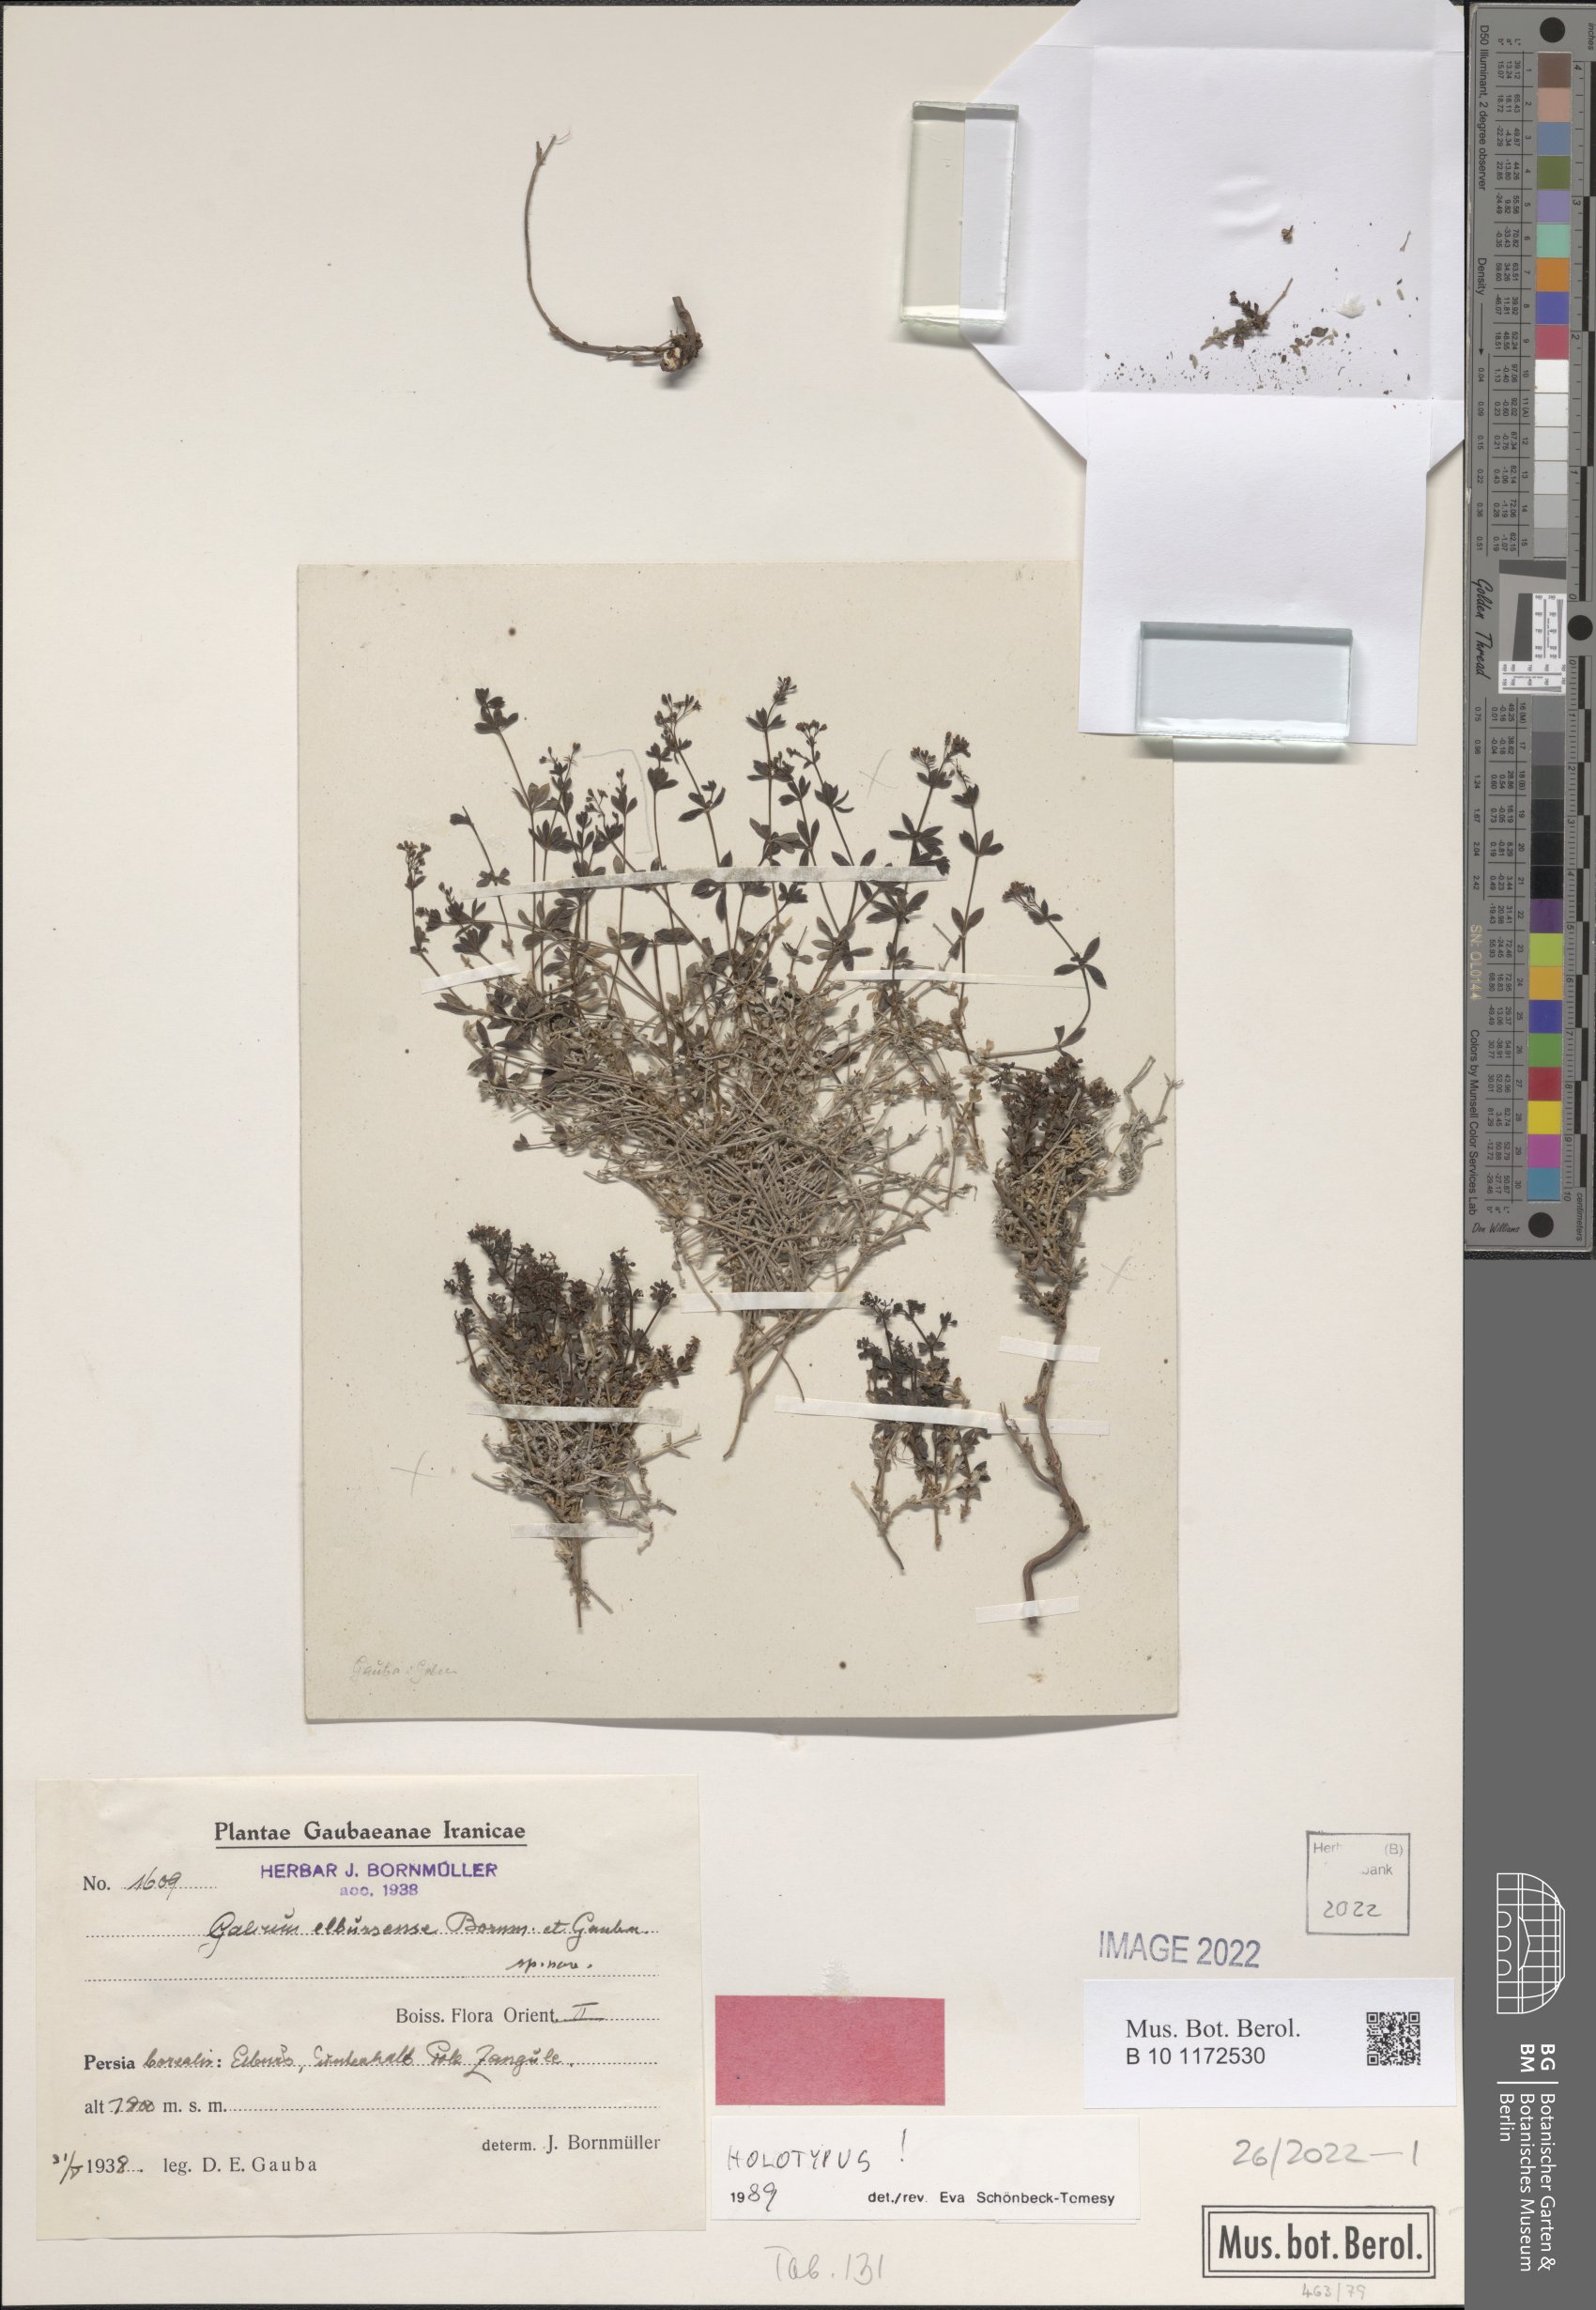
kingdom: Plantae
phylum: Tracheophyta
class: Magnoliopsida
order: Gentianales
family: Rubiaceae
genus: Galium
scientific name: Galium elbursense
